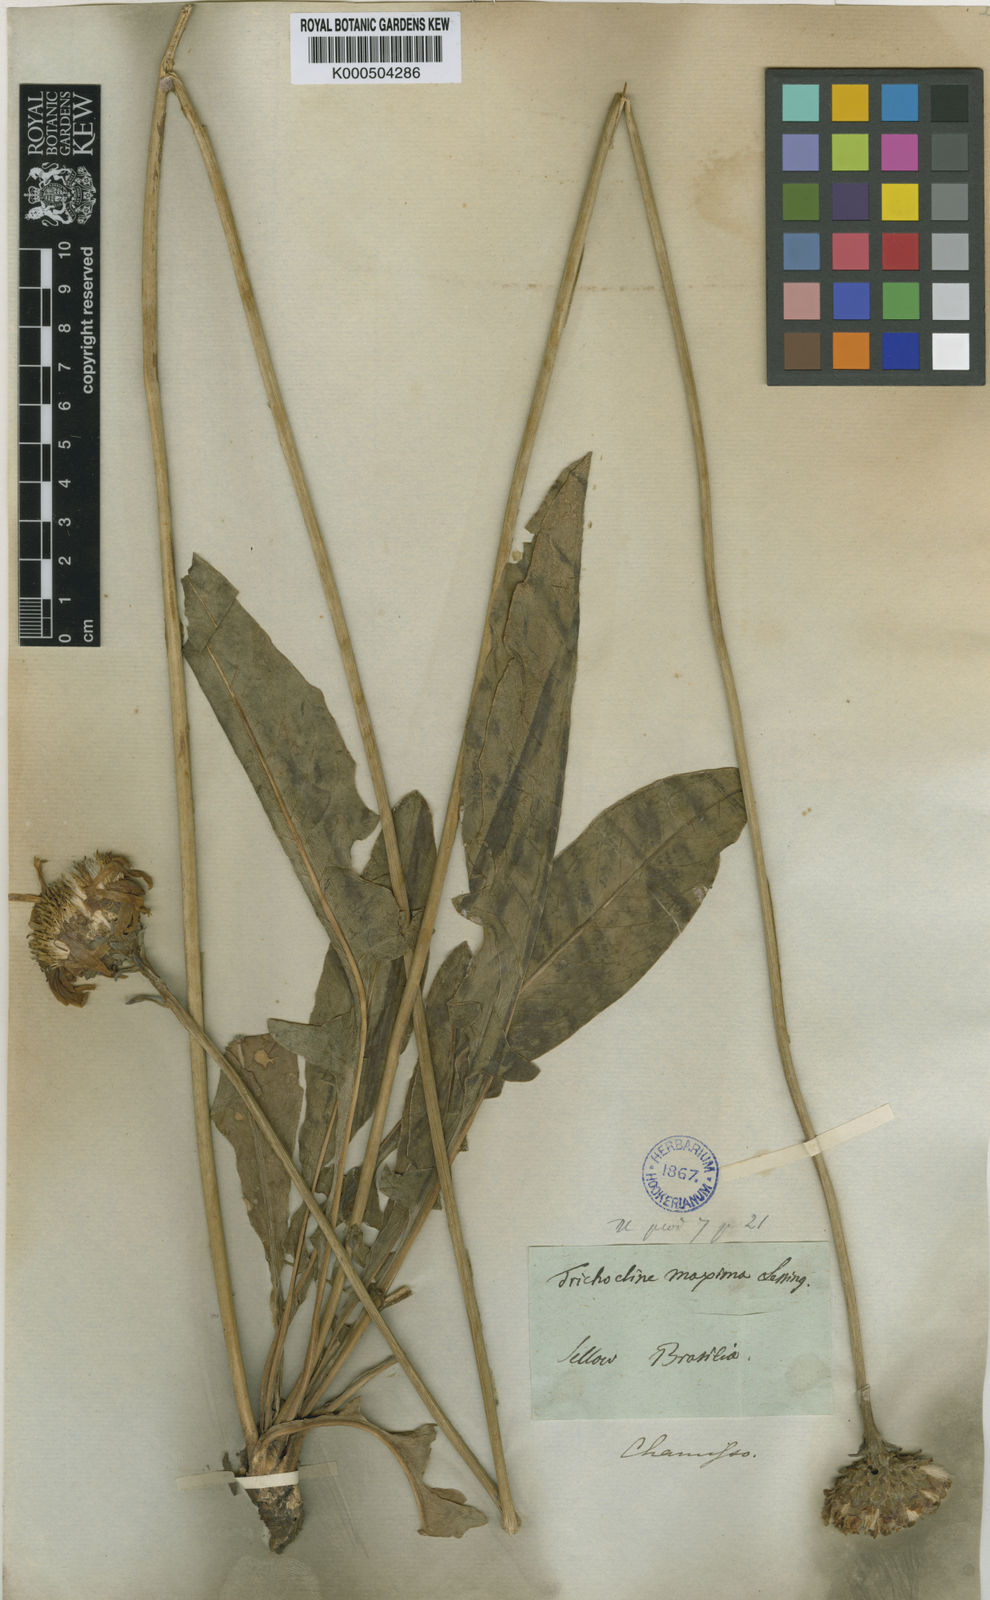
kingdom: Plantae
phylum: Tracheophyta
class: Magnoliopsida
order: Asterales
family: Asteraceae
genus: Trichocline
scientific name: Trichocline maxima
